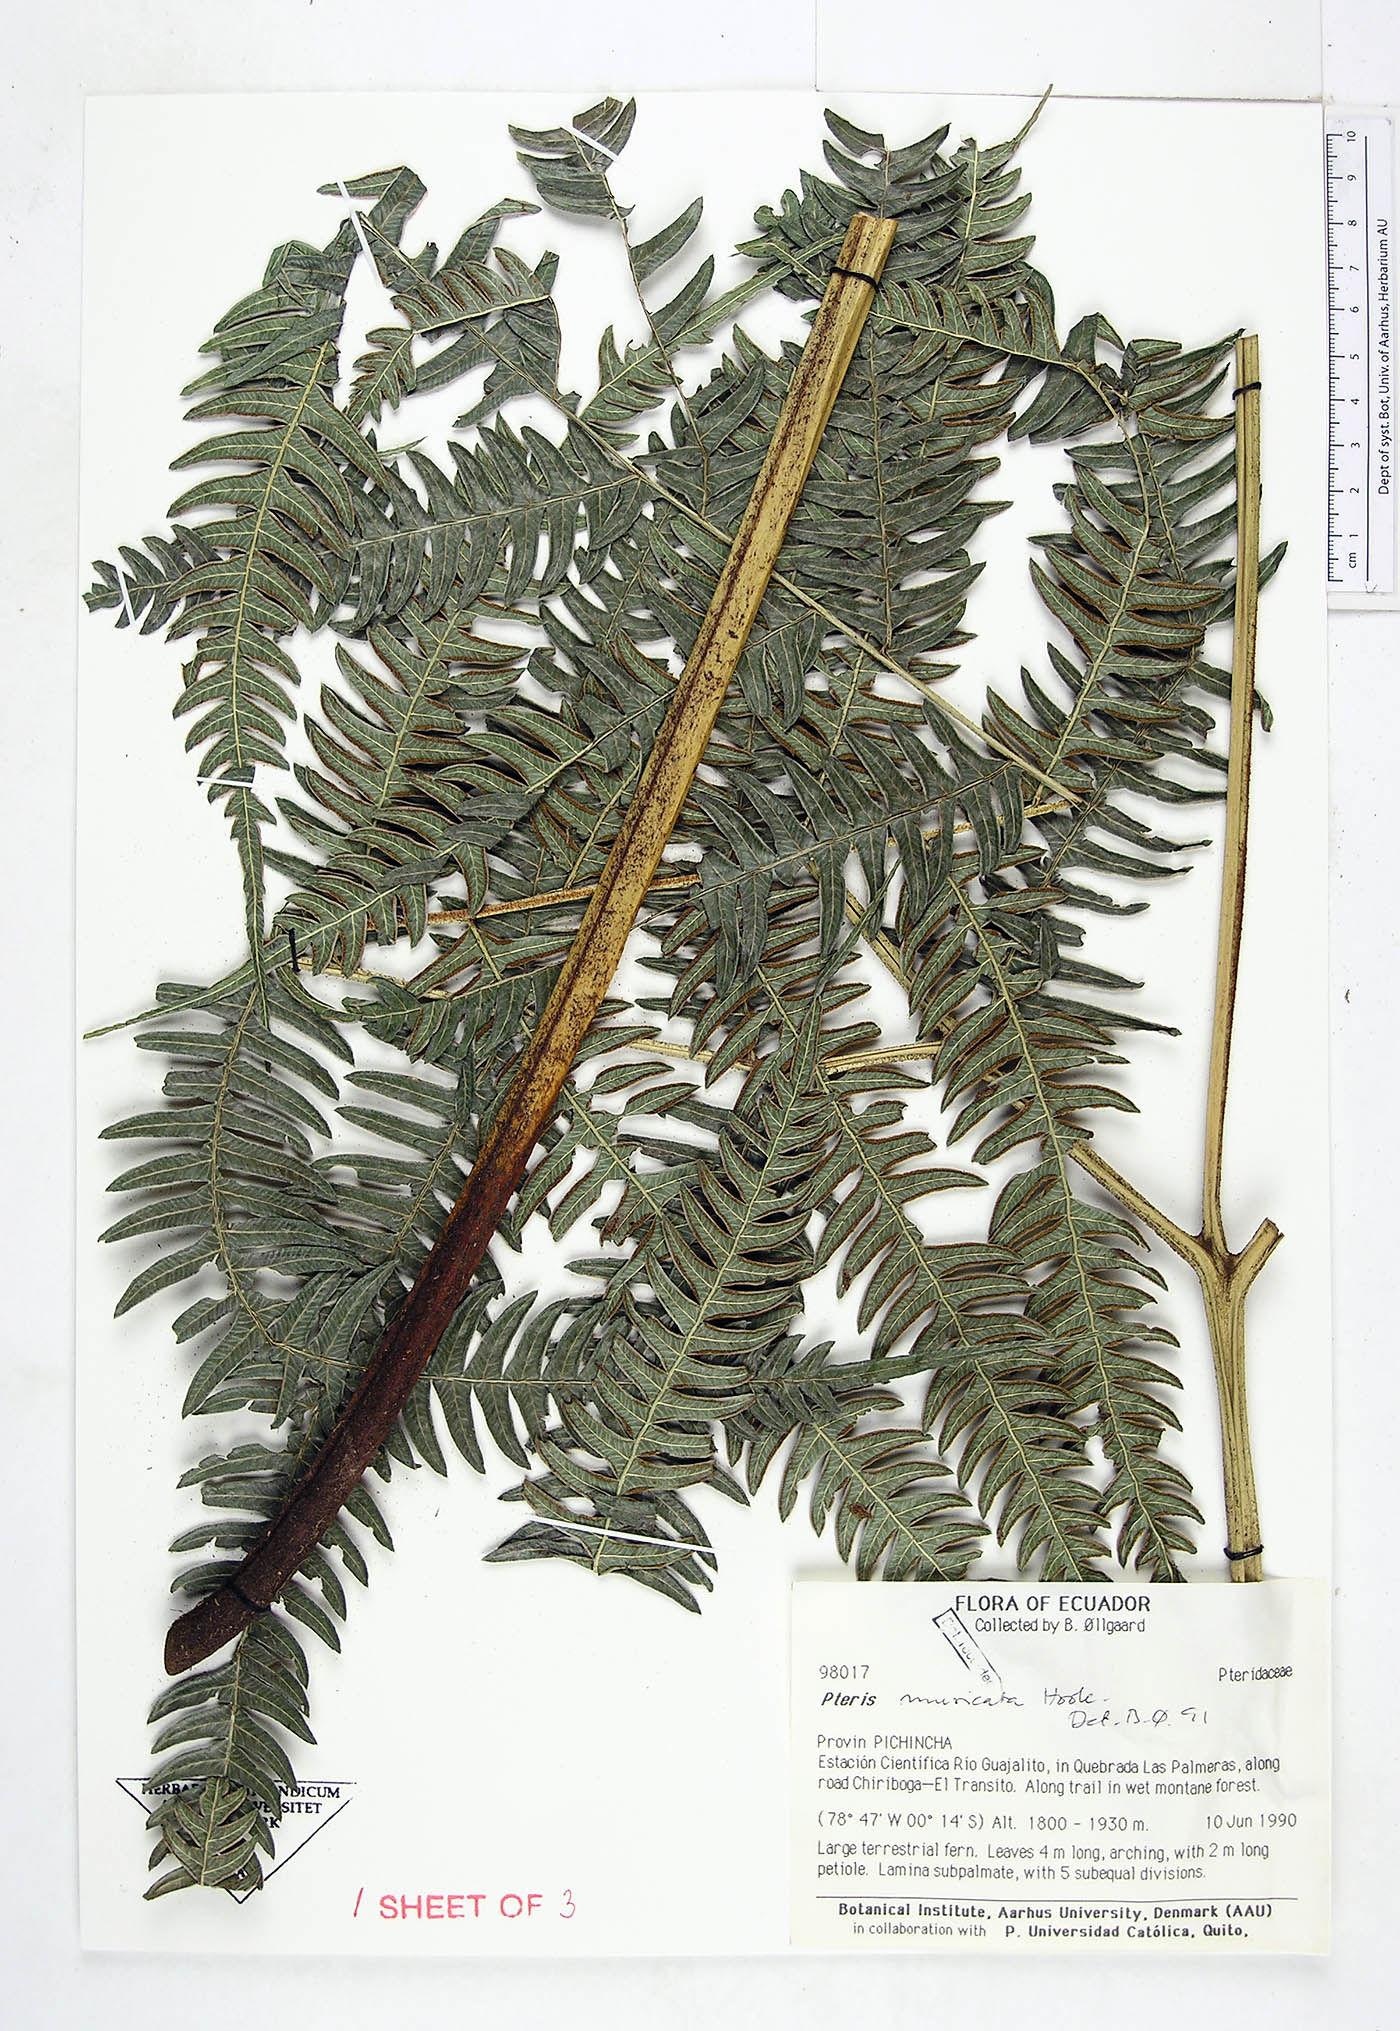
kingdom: Plantae
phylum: Tracheophyta
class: Polypodiopsida
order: Polypodiales
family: Pteridaceae
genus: Pteris
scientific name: Pteris muricata
